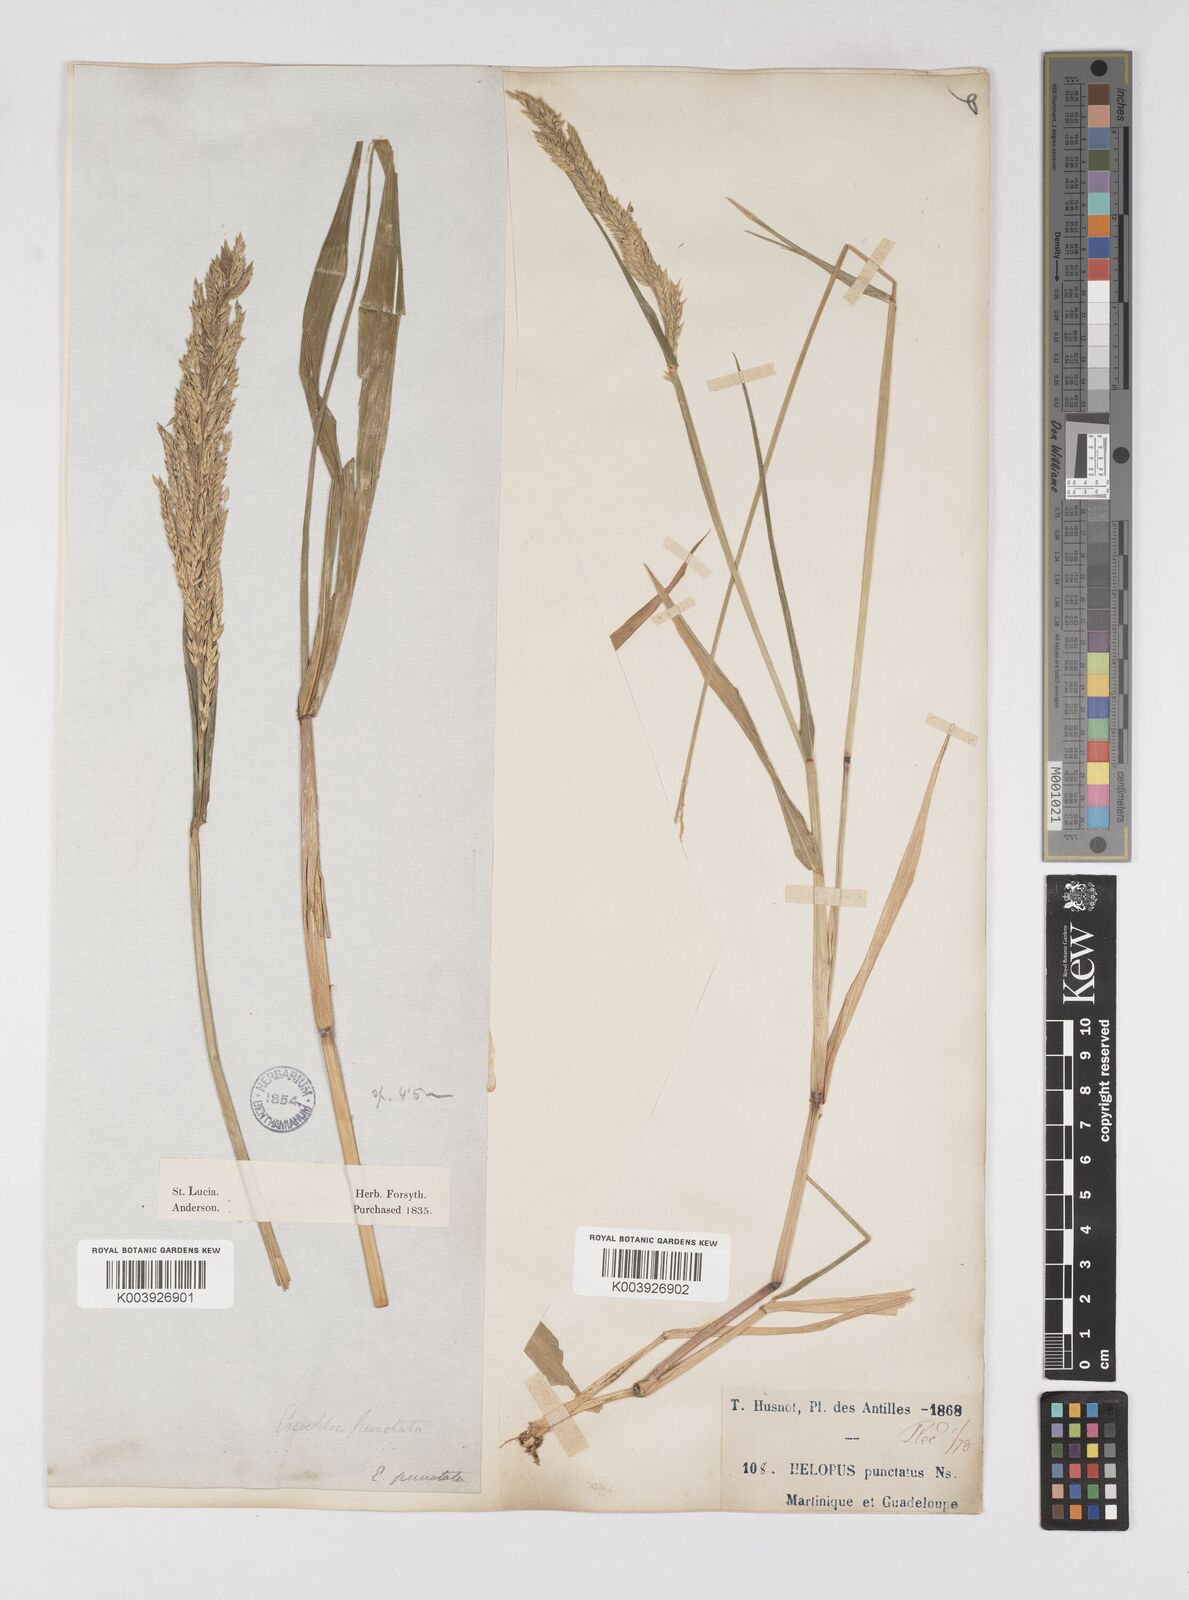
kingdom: Plantae
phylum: Tracheophyta
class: Liliopsida
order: Poales
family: Poaceae
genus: Eriochloa
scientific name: Eriochloa punctata
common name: Louisiana cupgrass
